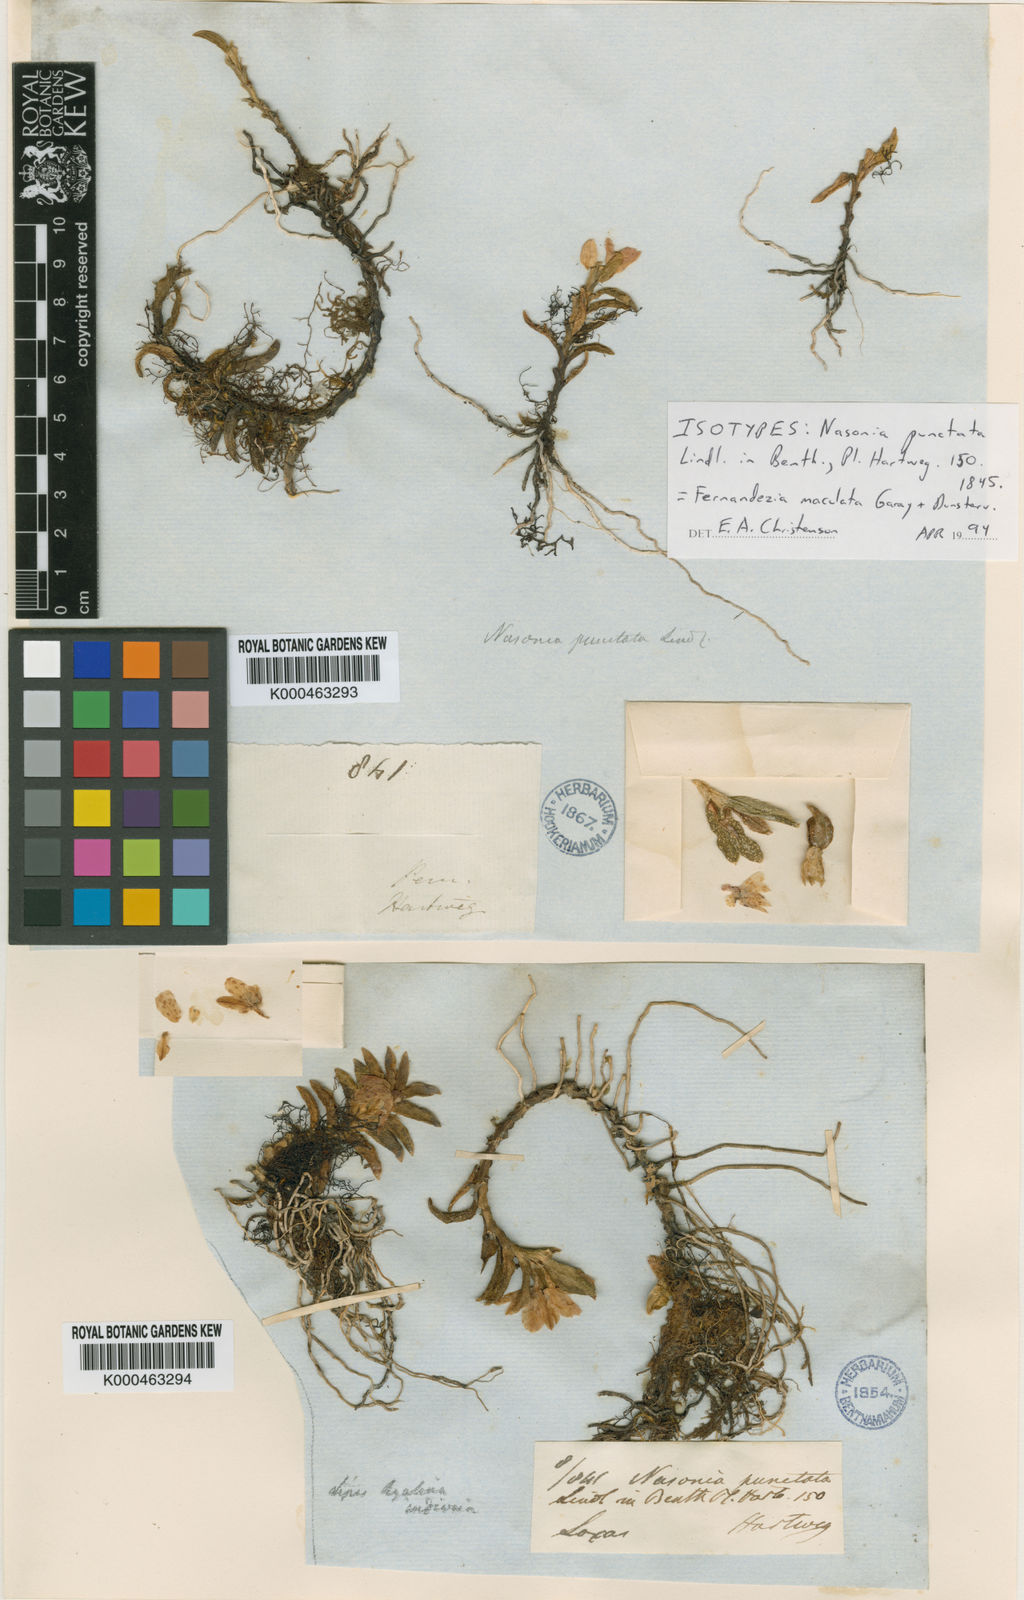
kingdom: Plantae
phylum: Tracheophyta
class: Liliopsida
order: Asparagales
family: Orchidaceae
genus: Fernandezia
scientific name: Fernandezia maculata
